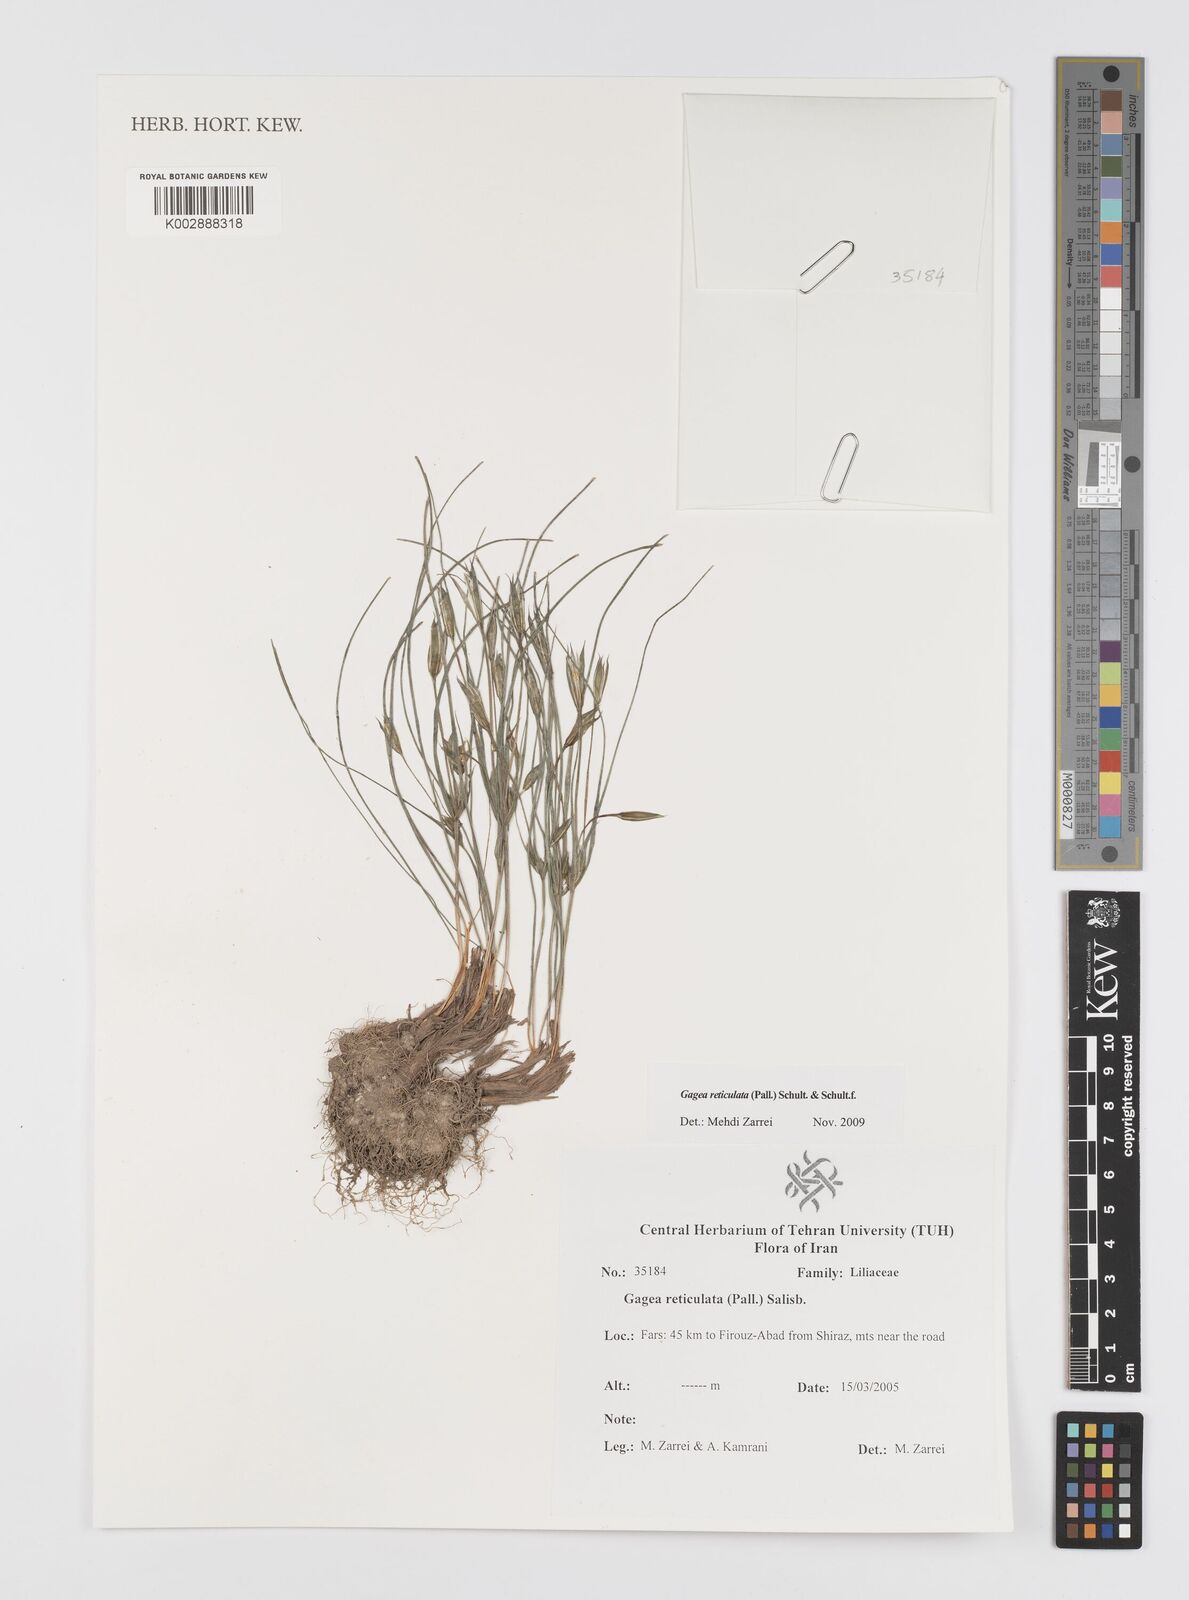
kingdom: Plantae
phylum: Tracheophyta
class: Liliopsida
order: Liliales
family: Liliaceae
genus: Gagea
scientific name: Gagea reticulata
